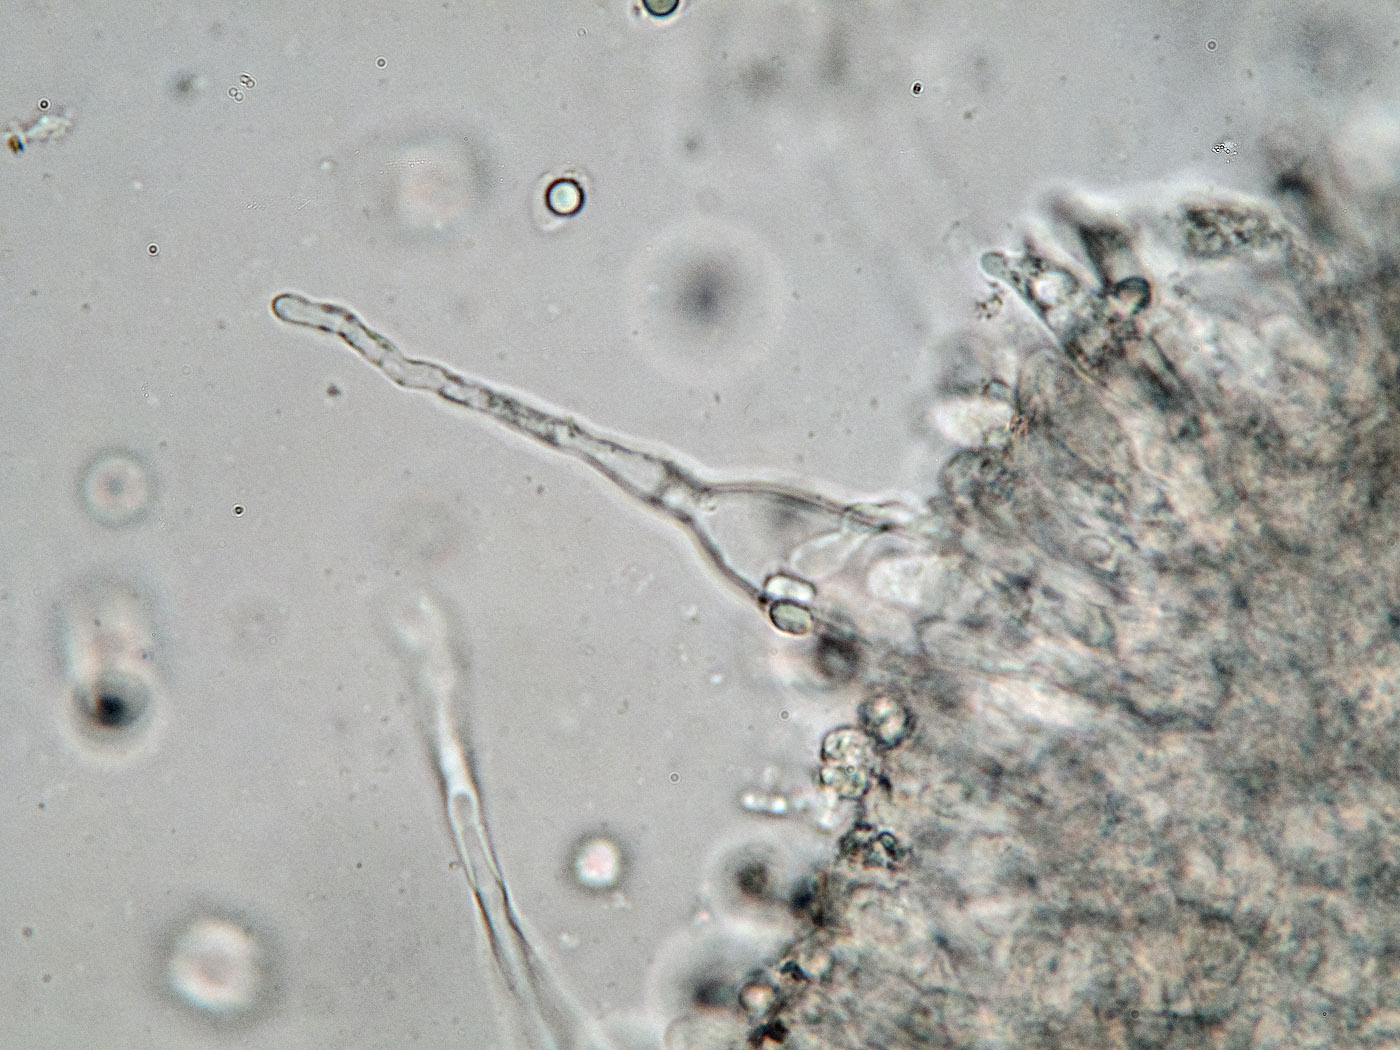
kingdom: Fungi
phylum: Basidiomycota
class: Agaricomycetes
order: Agaricales
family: Mycenaceae
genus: Atheniella
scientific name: Atheniella adonis
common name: rønnerød huesvamp
